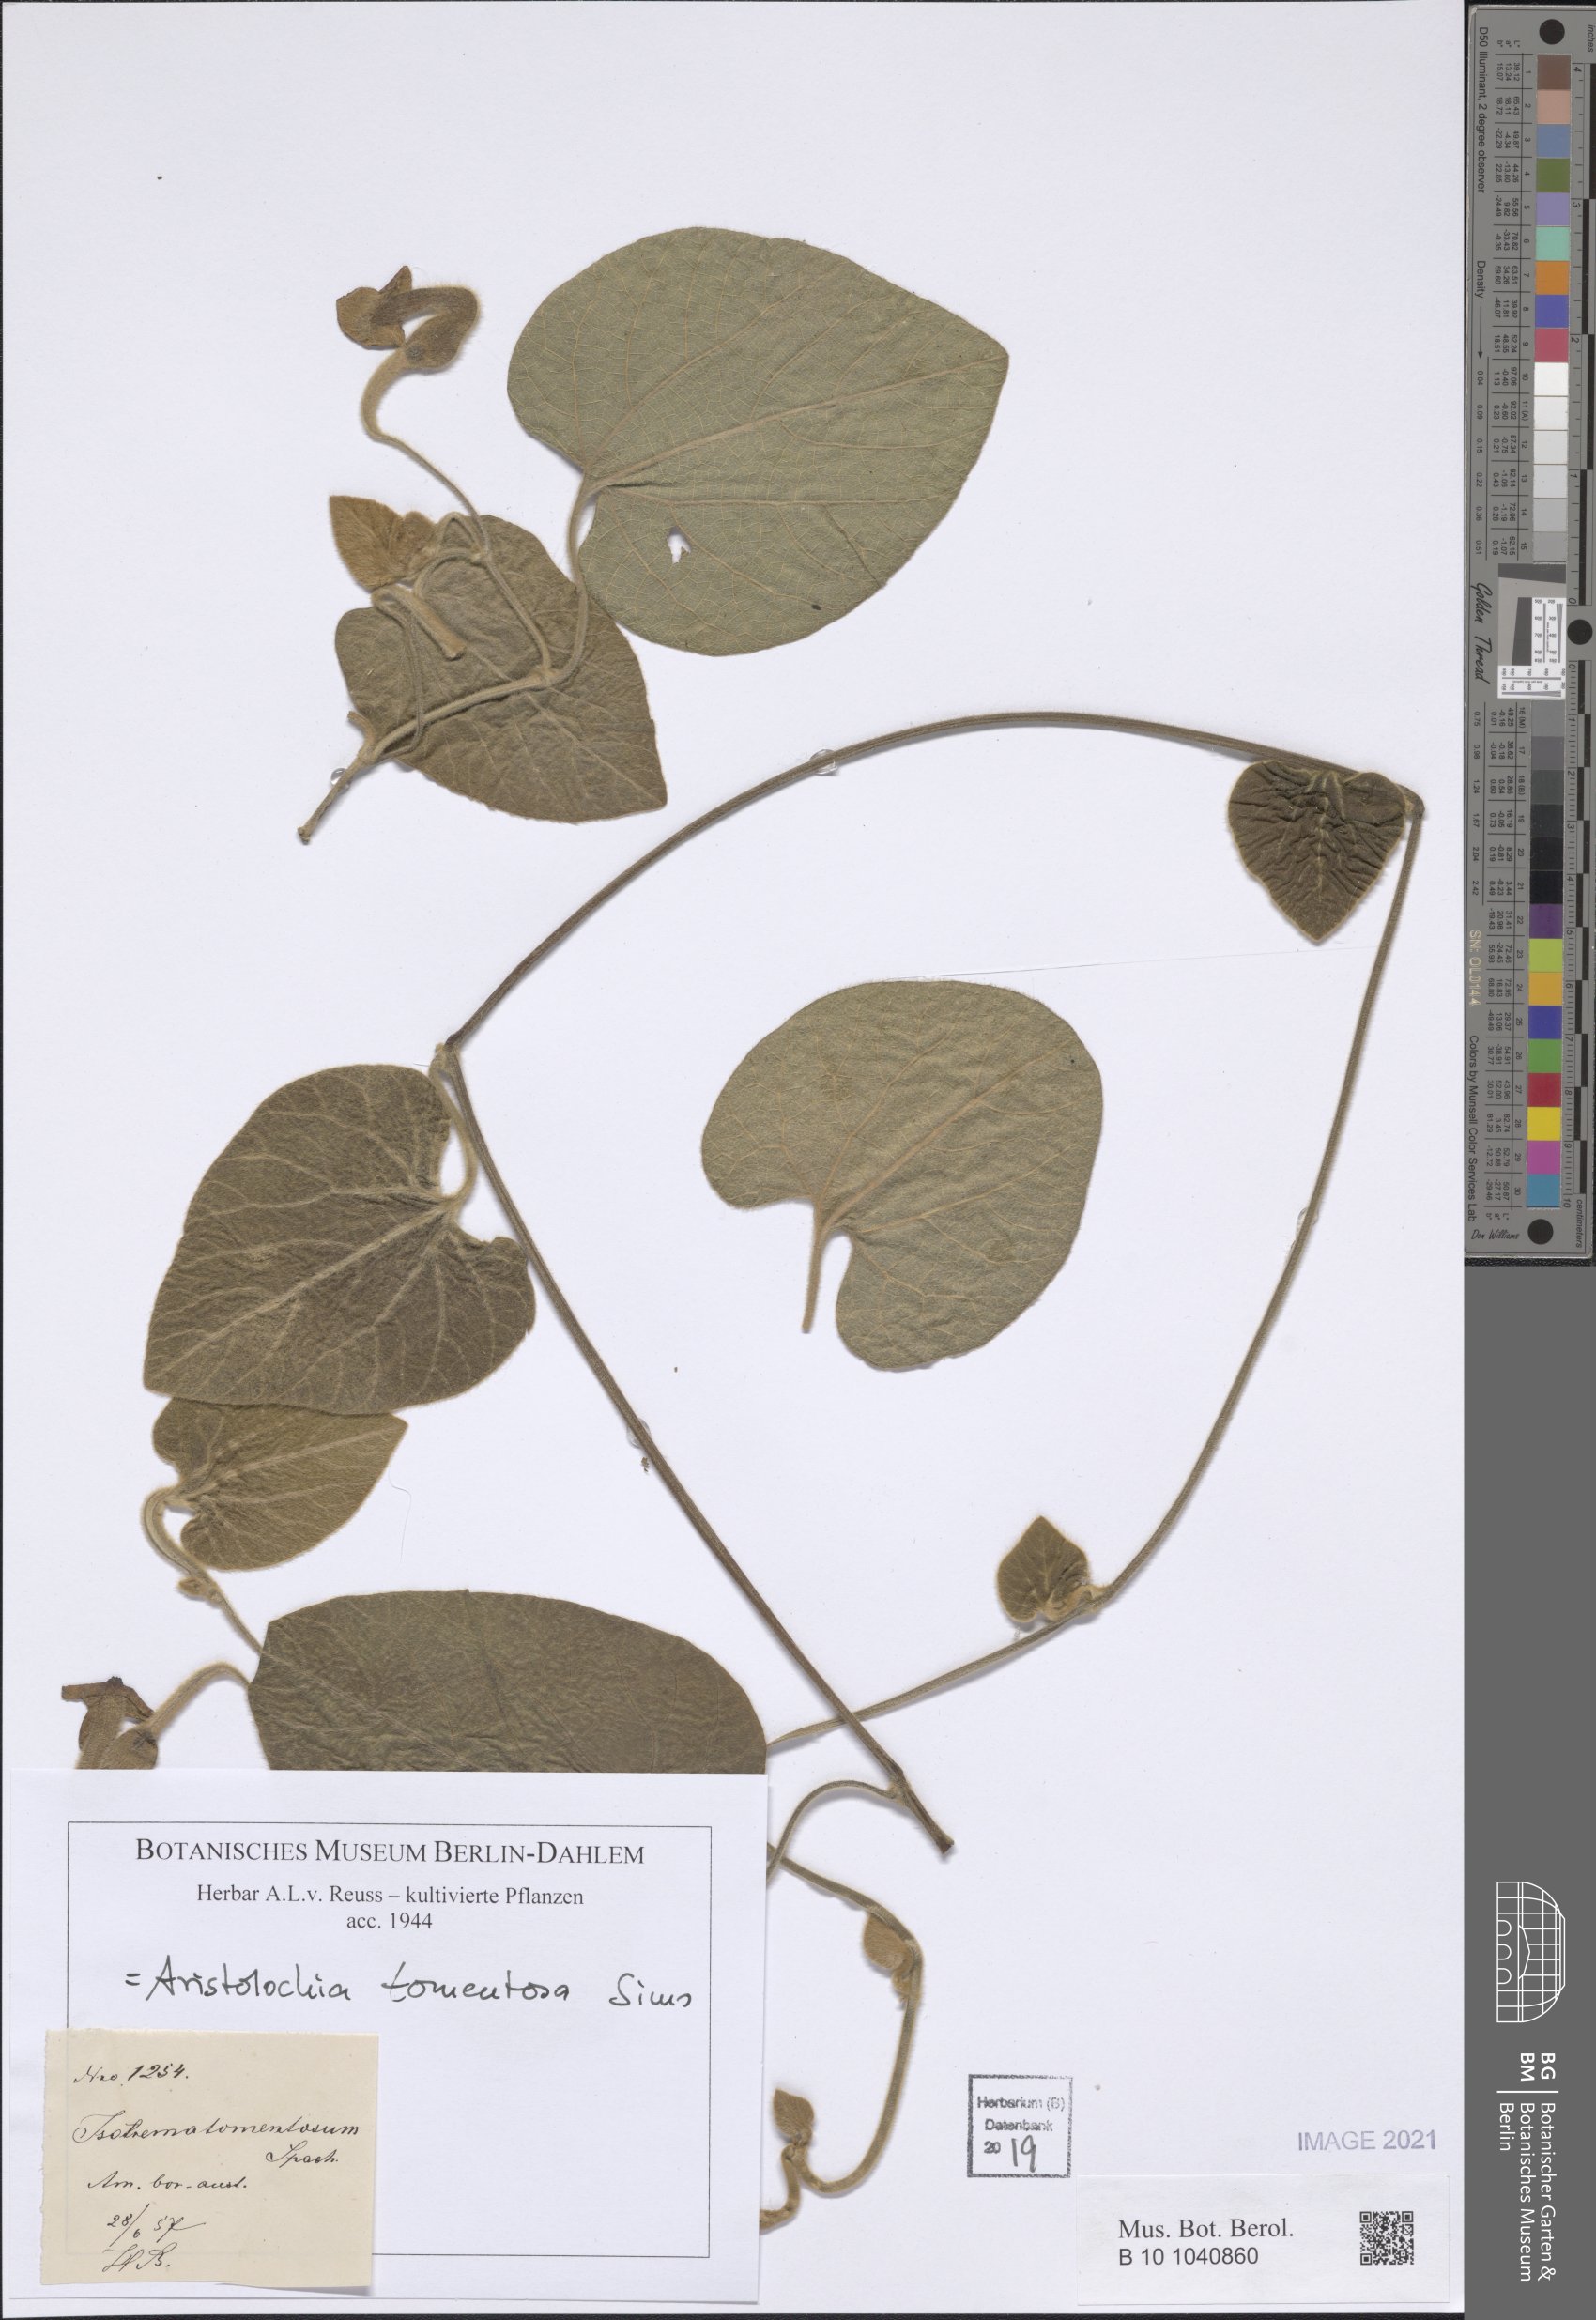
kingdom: Plantae
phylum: Tracheophyta
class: Magnoliopsida
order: Piperales
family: Aristolochiaceae
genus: Isotrema
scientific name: Isotrema tomentosum
